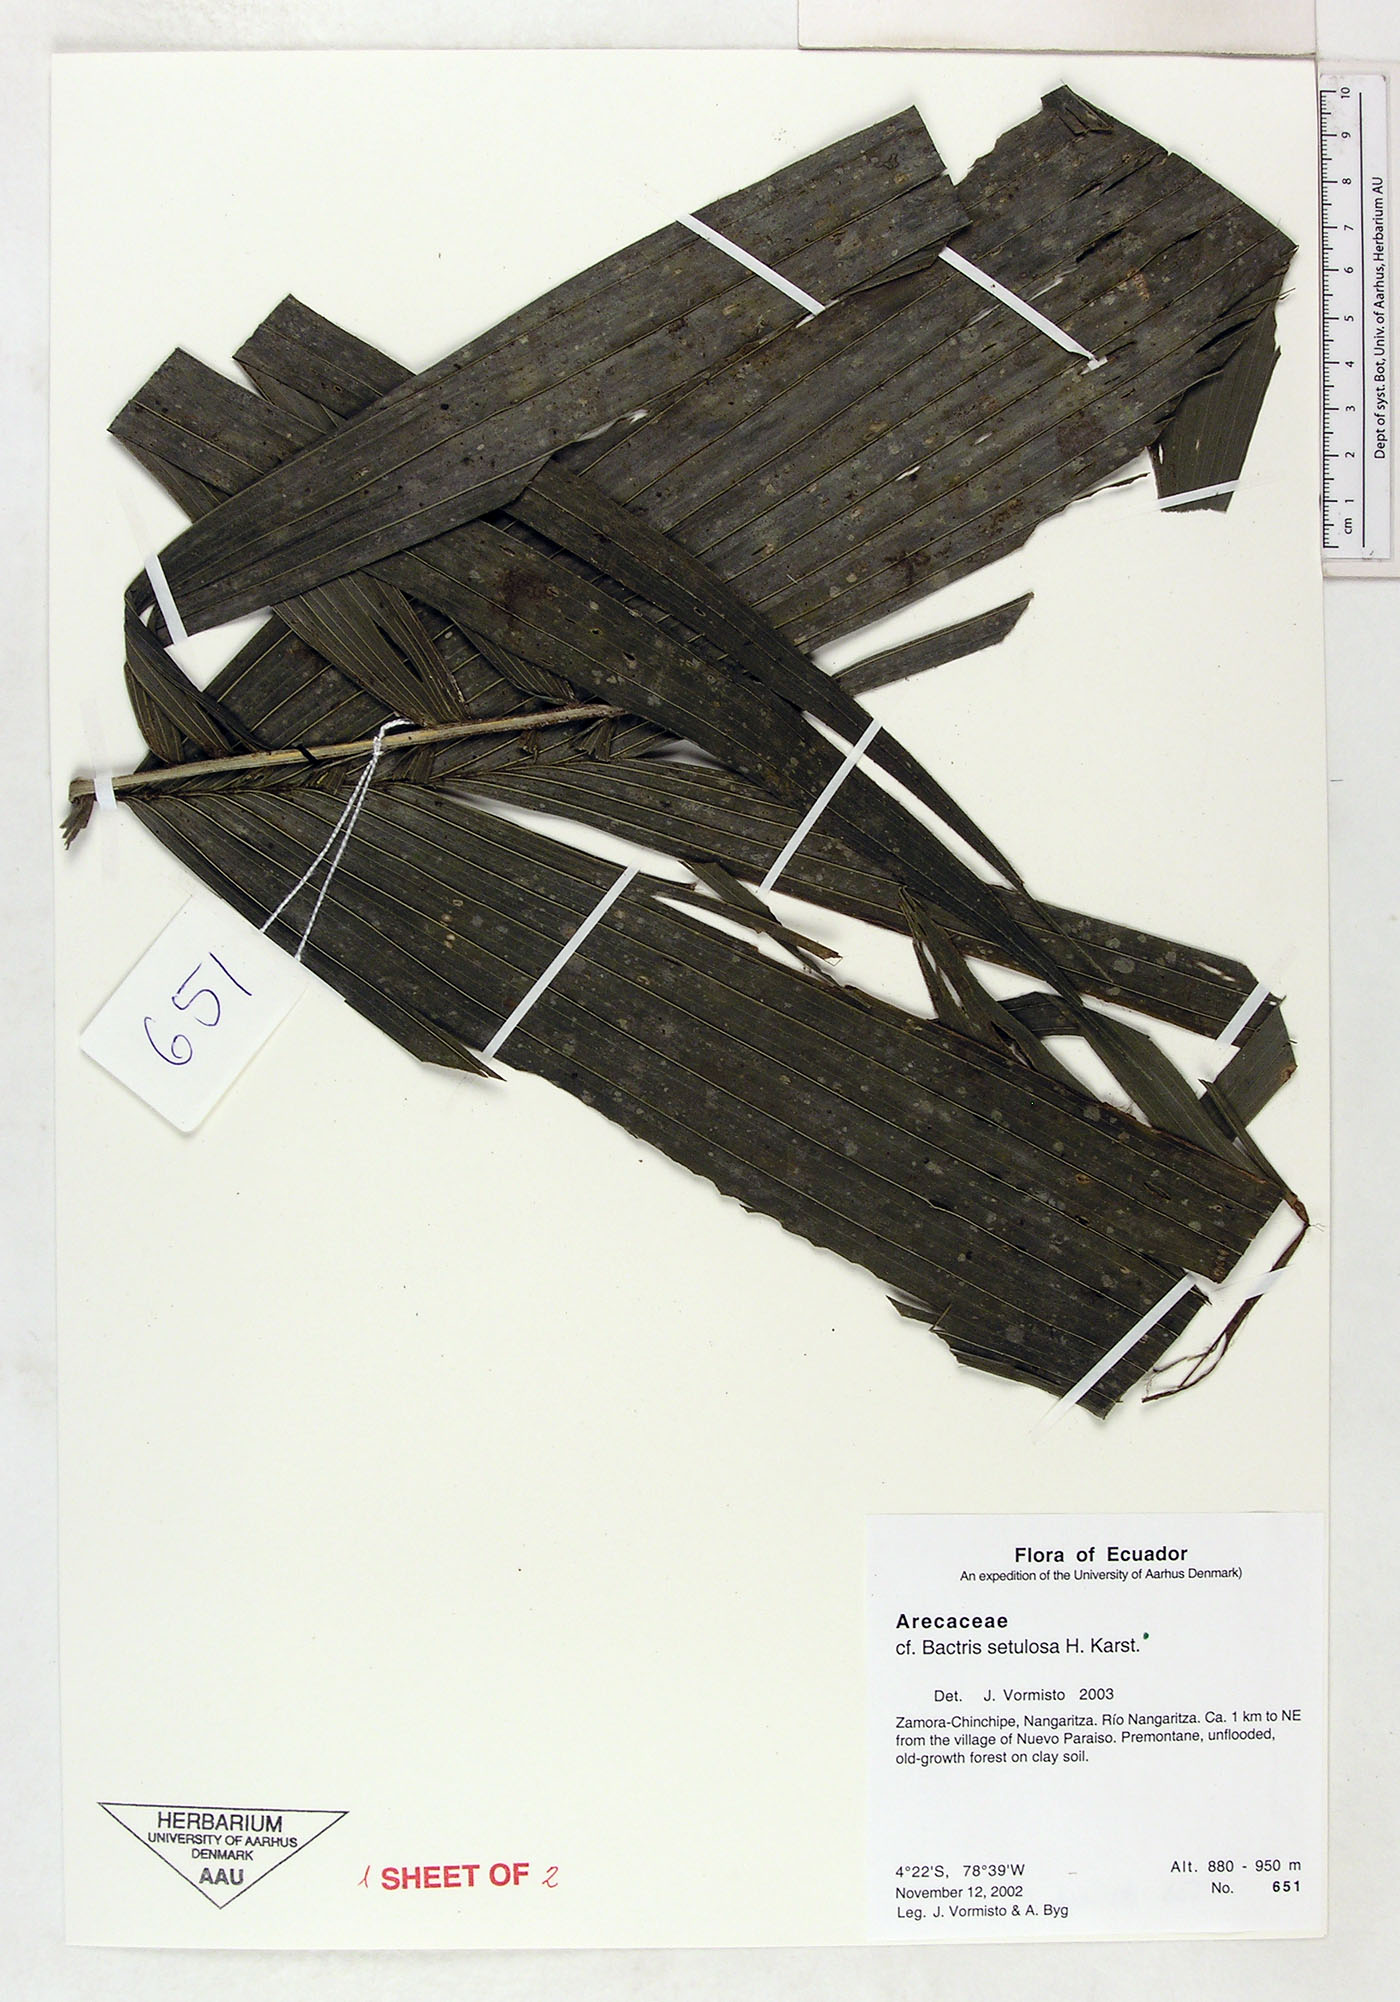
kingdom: Plantae
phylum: Tracheophyta
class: Liliopsida
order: Arecales
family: Arecaceae
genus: Bactris
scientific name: Bactris setulosa
